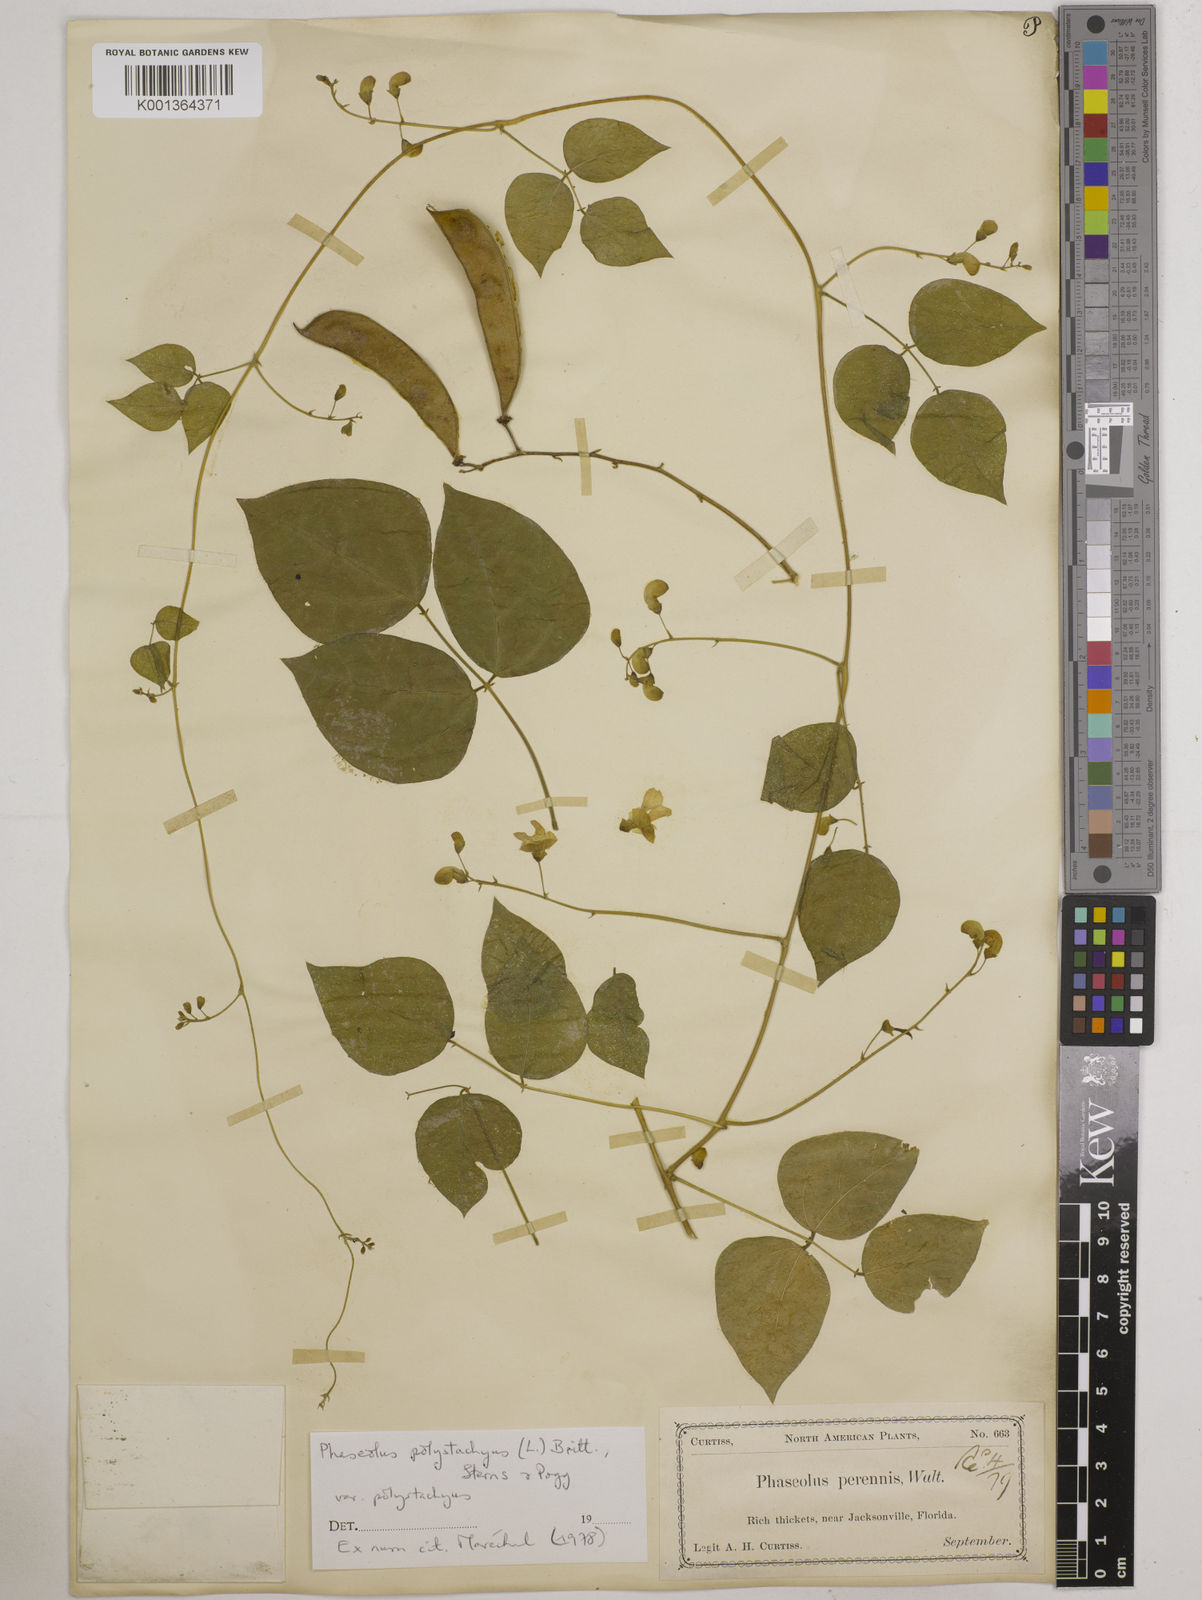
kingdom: Plantae
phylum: Tracheophyta
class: Magnoliopsida
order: Fabales
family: Fabaceae
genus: Phaseolus
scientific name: Phaseolus
